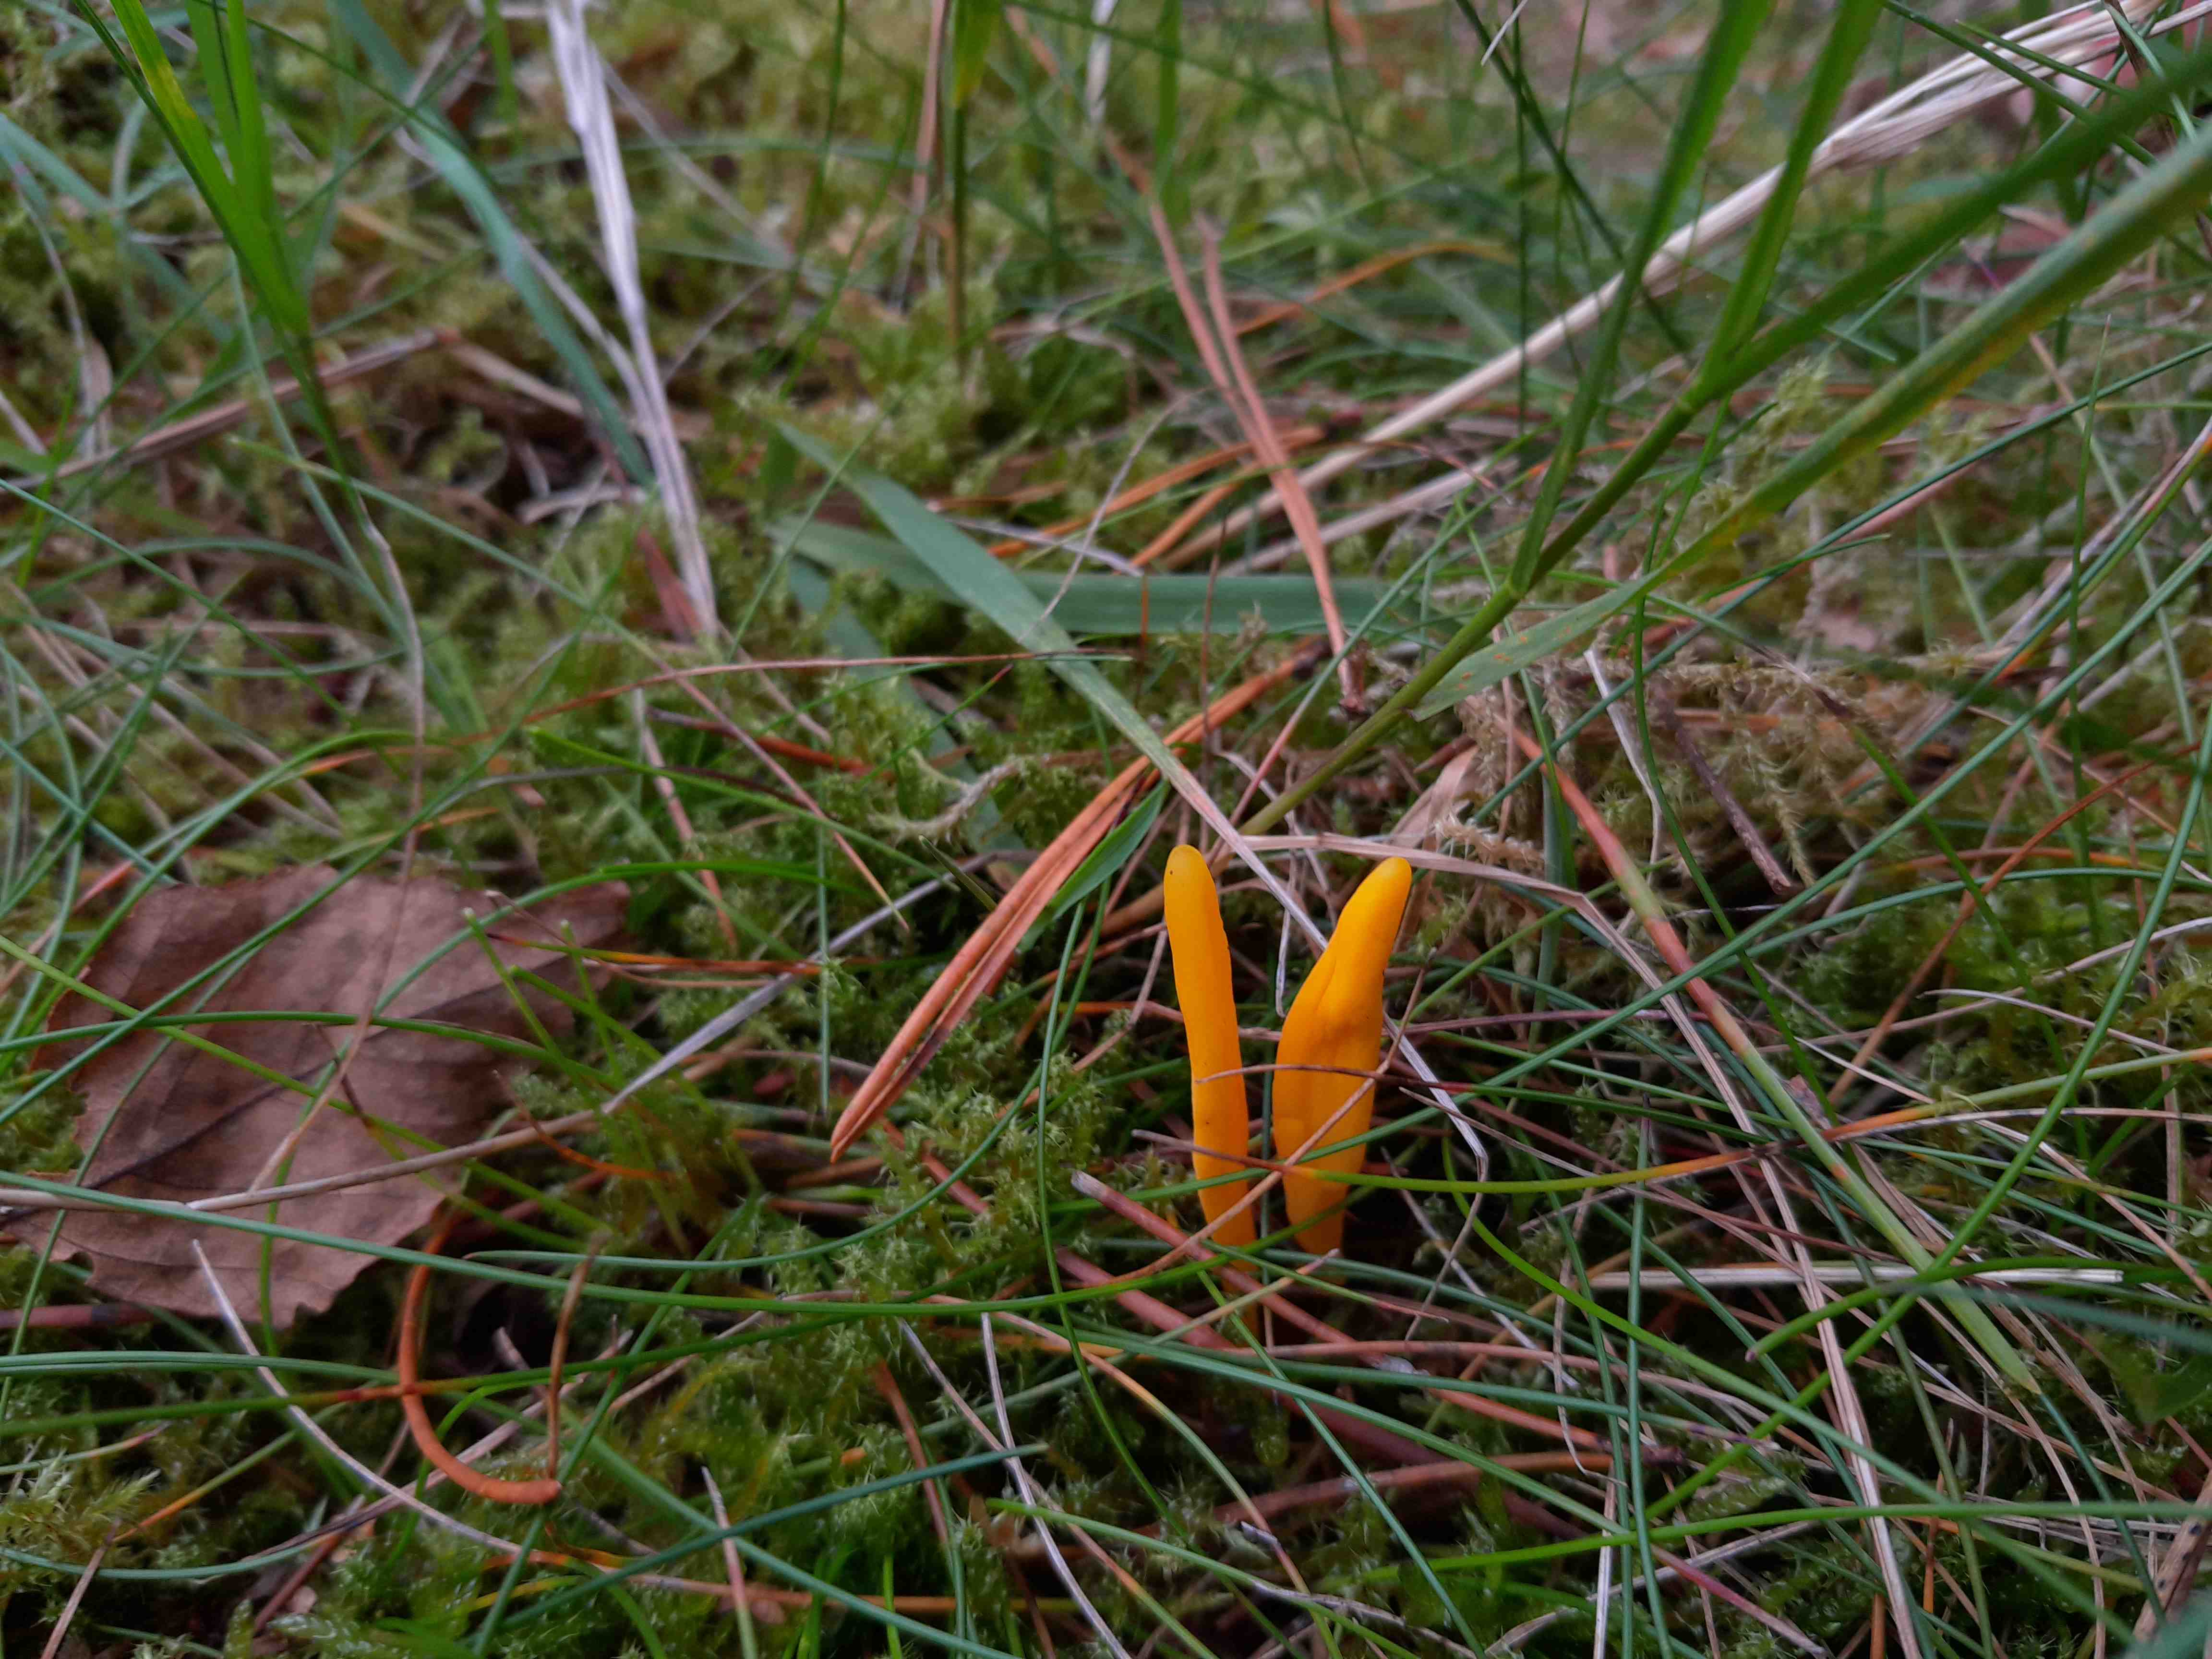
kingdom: Fungi
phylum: Basidiomycota
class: Agaricomycetes
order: Agaricales
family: Clavariaceae
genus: Clavulinopsis
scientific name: Clavulinopsis
